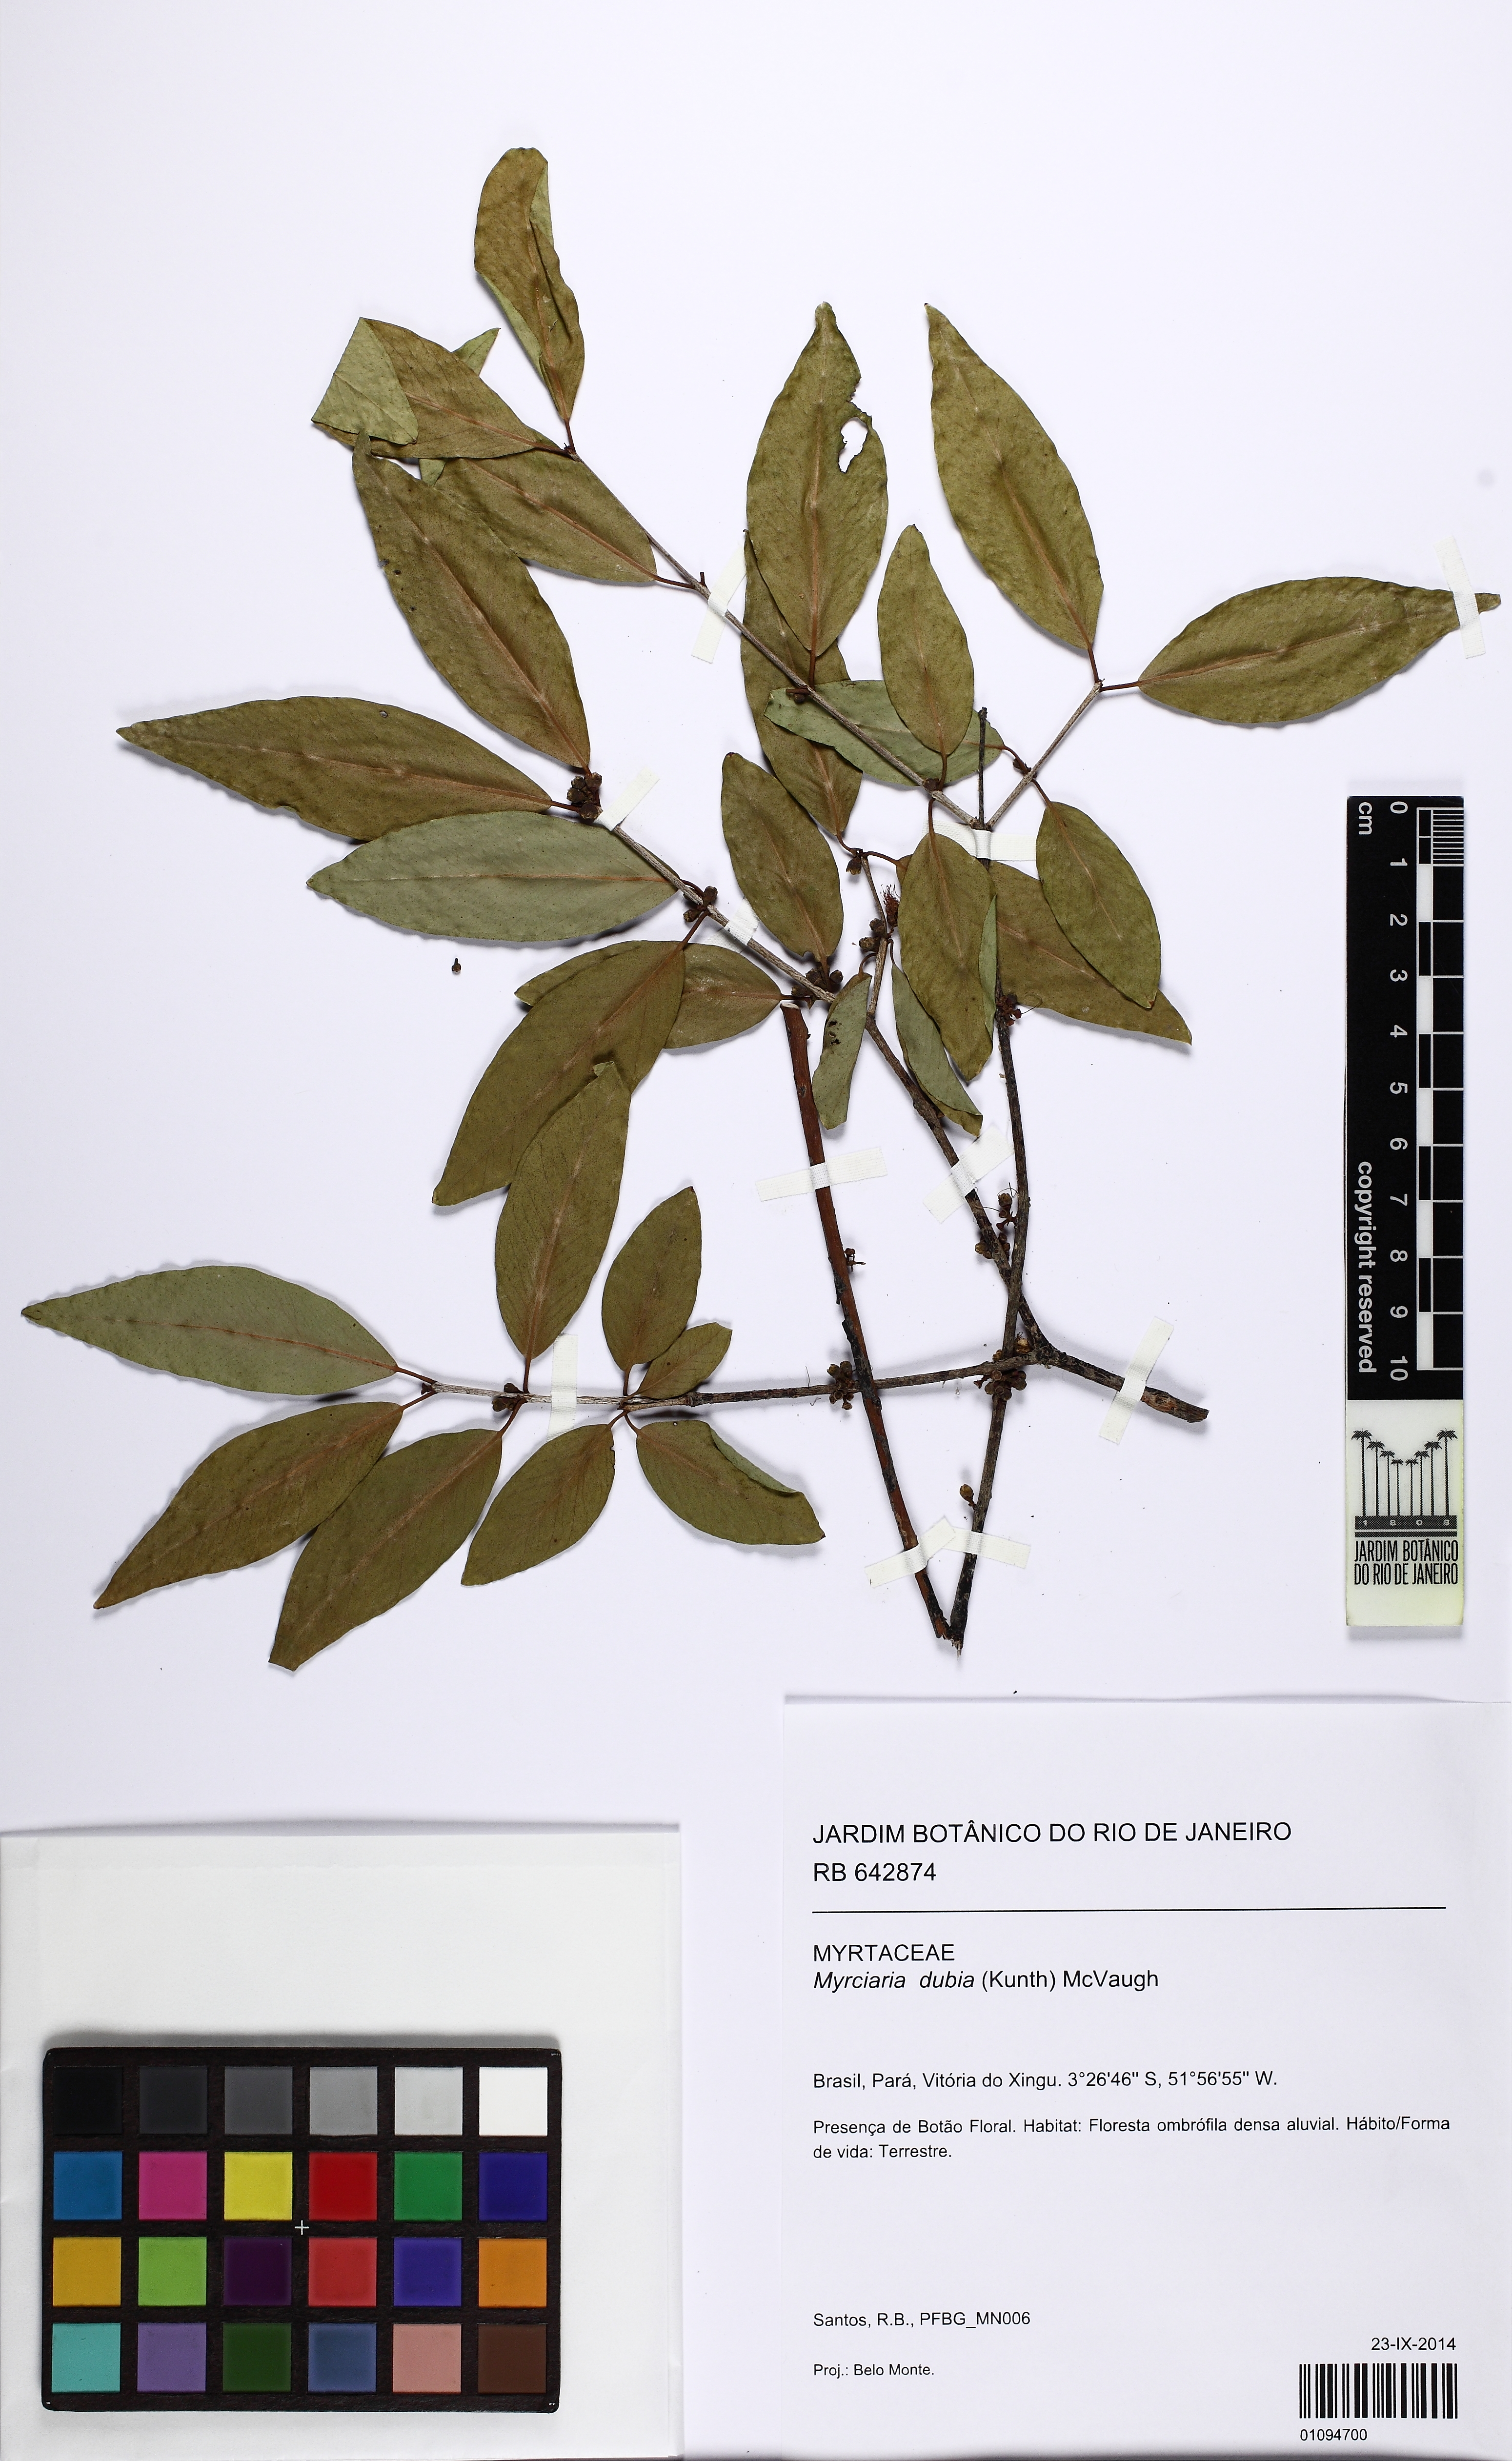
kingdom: Plantae
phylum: Tracheophyta
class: Magnoliopsida
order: Myrtales
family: Myrtaceae
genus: Myrciaria
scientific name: Myrciaria dubia
